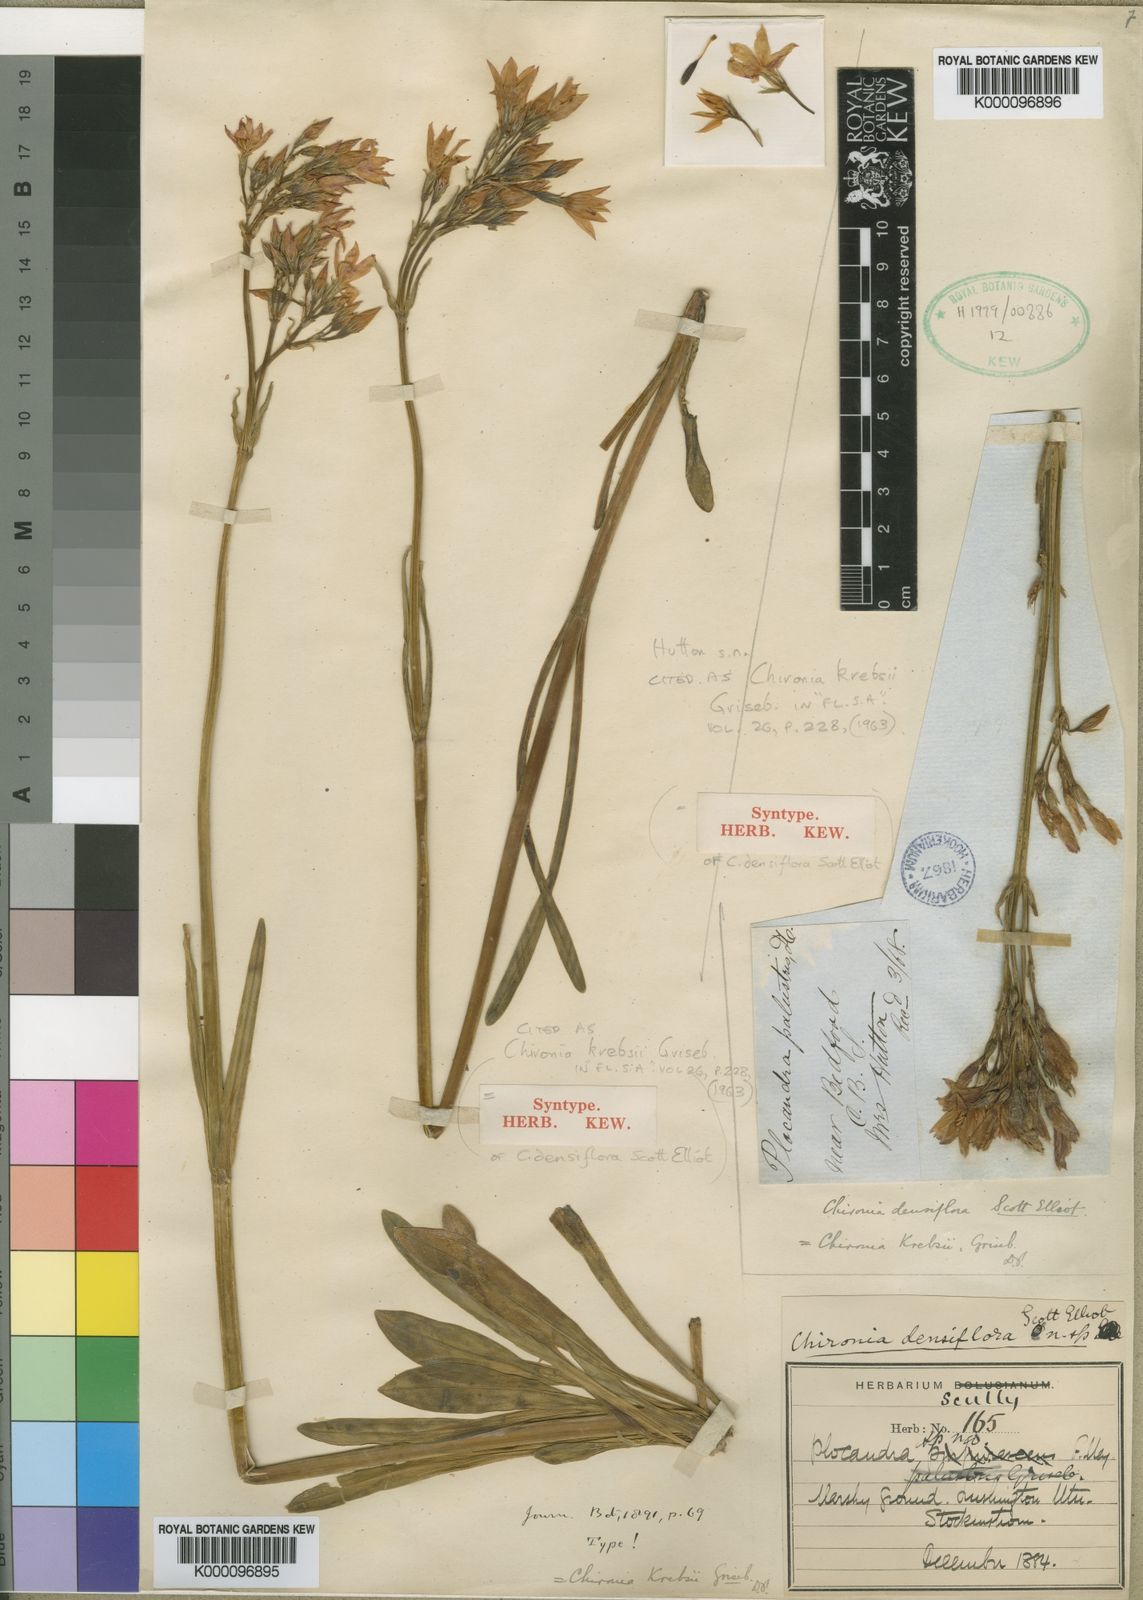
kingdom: Plantae
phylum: Tracheophyta
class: Magnoliopsida
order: Gentianales
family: Gentianaceae
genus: Chironia
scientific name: Chironia krebsii
